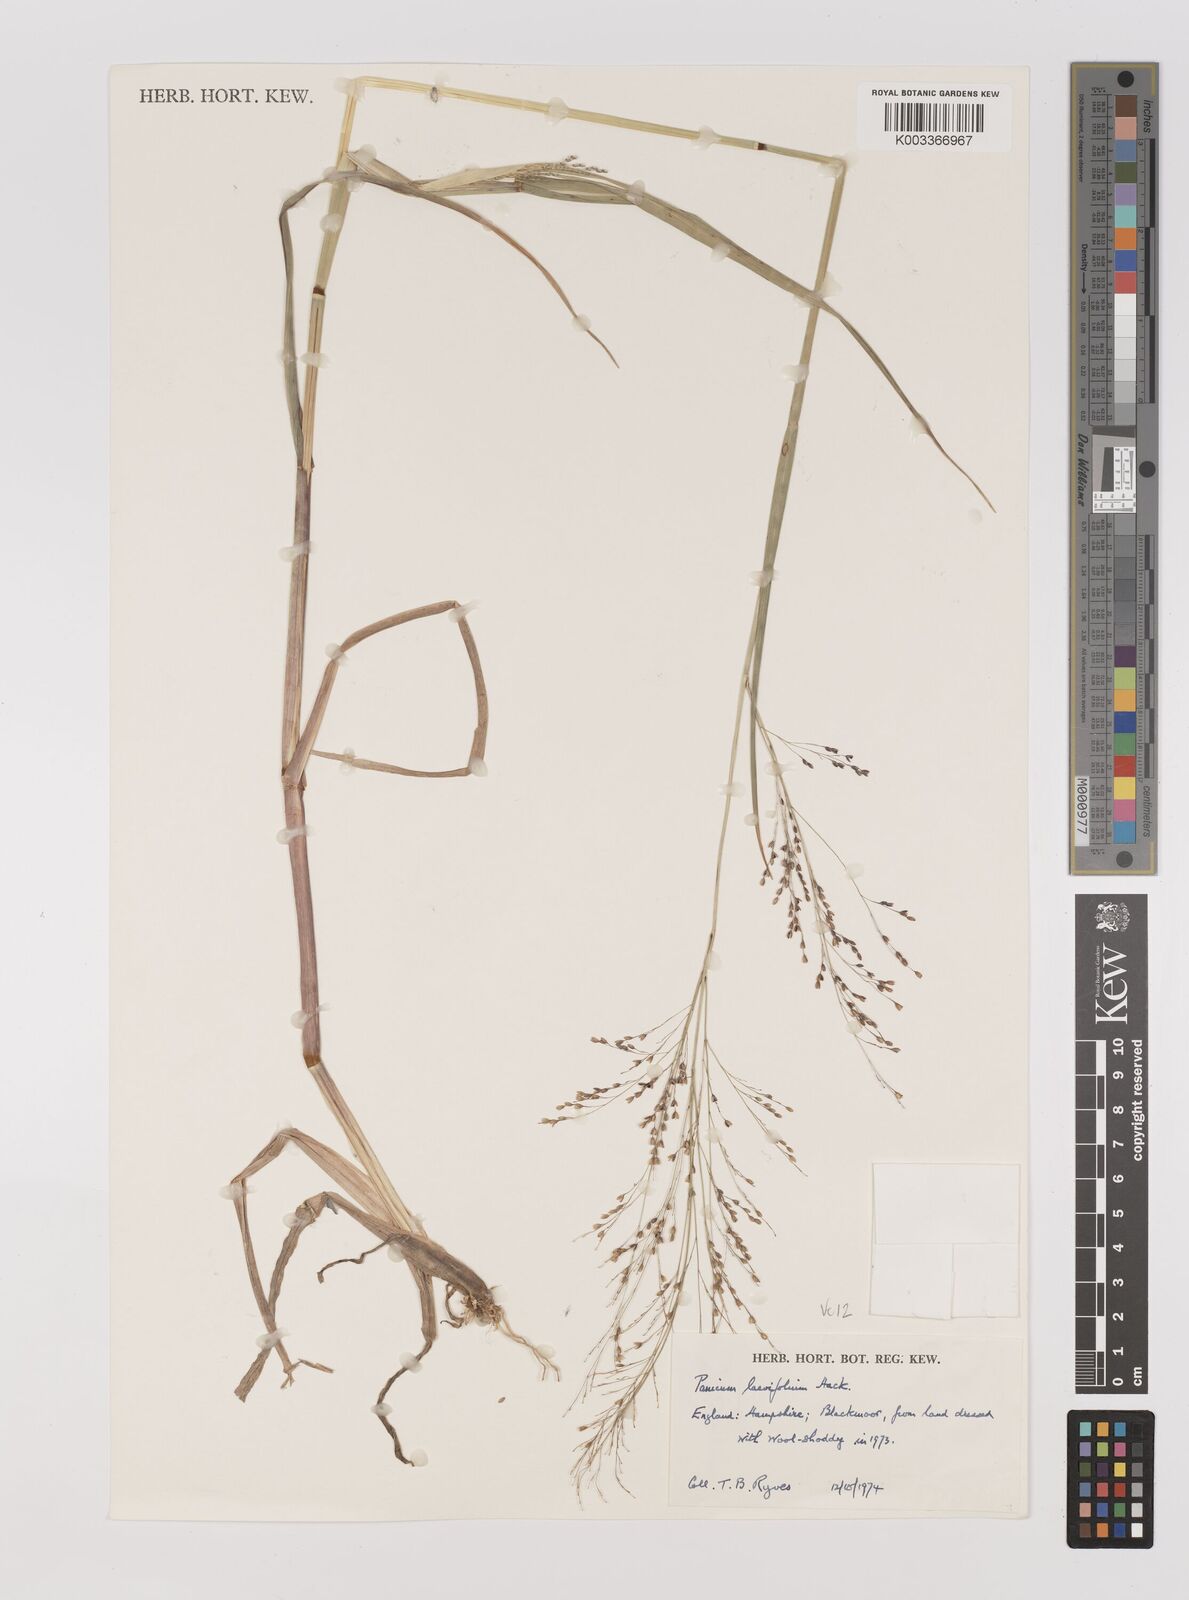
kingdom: Plantae
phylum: Tracheophyta
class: Liliopsida
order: Poales
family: Poaceae
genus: Panicum
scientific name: Panicum schinzii
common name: Sweet grass
